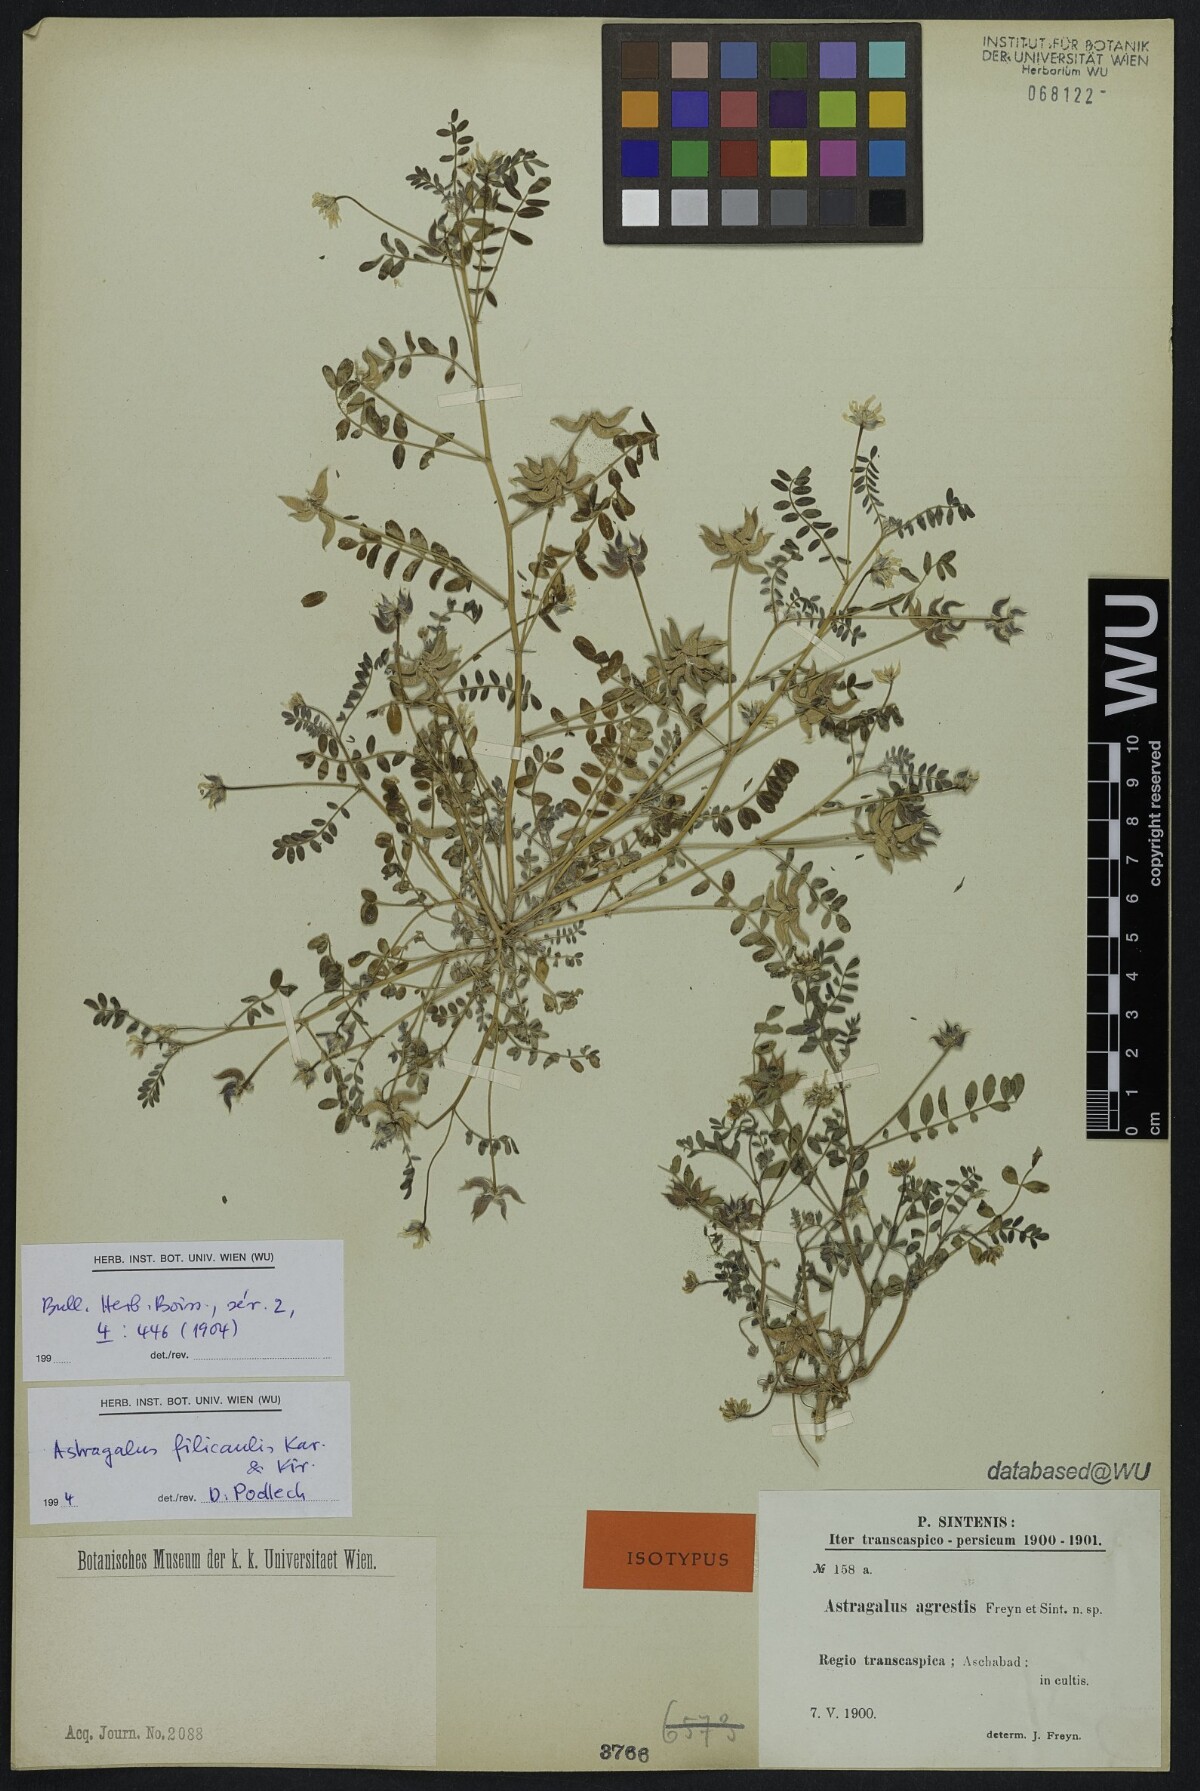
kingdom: Plantae
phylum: Tracheophyta
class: Magnoliopsida
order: Fabales
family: Fabaceae
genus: Astragalus
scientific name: Astragalus filicaulis
